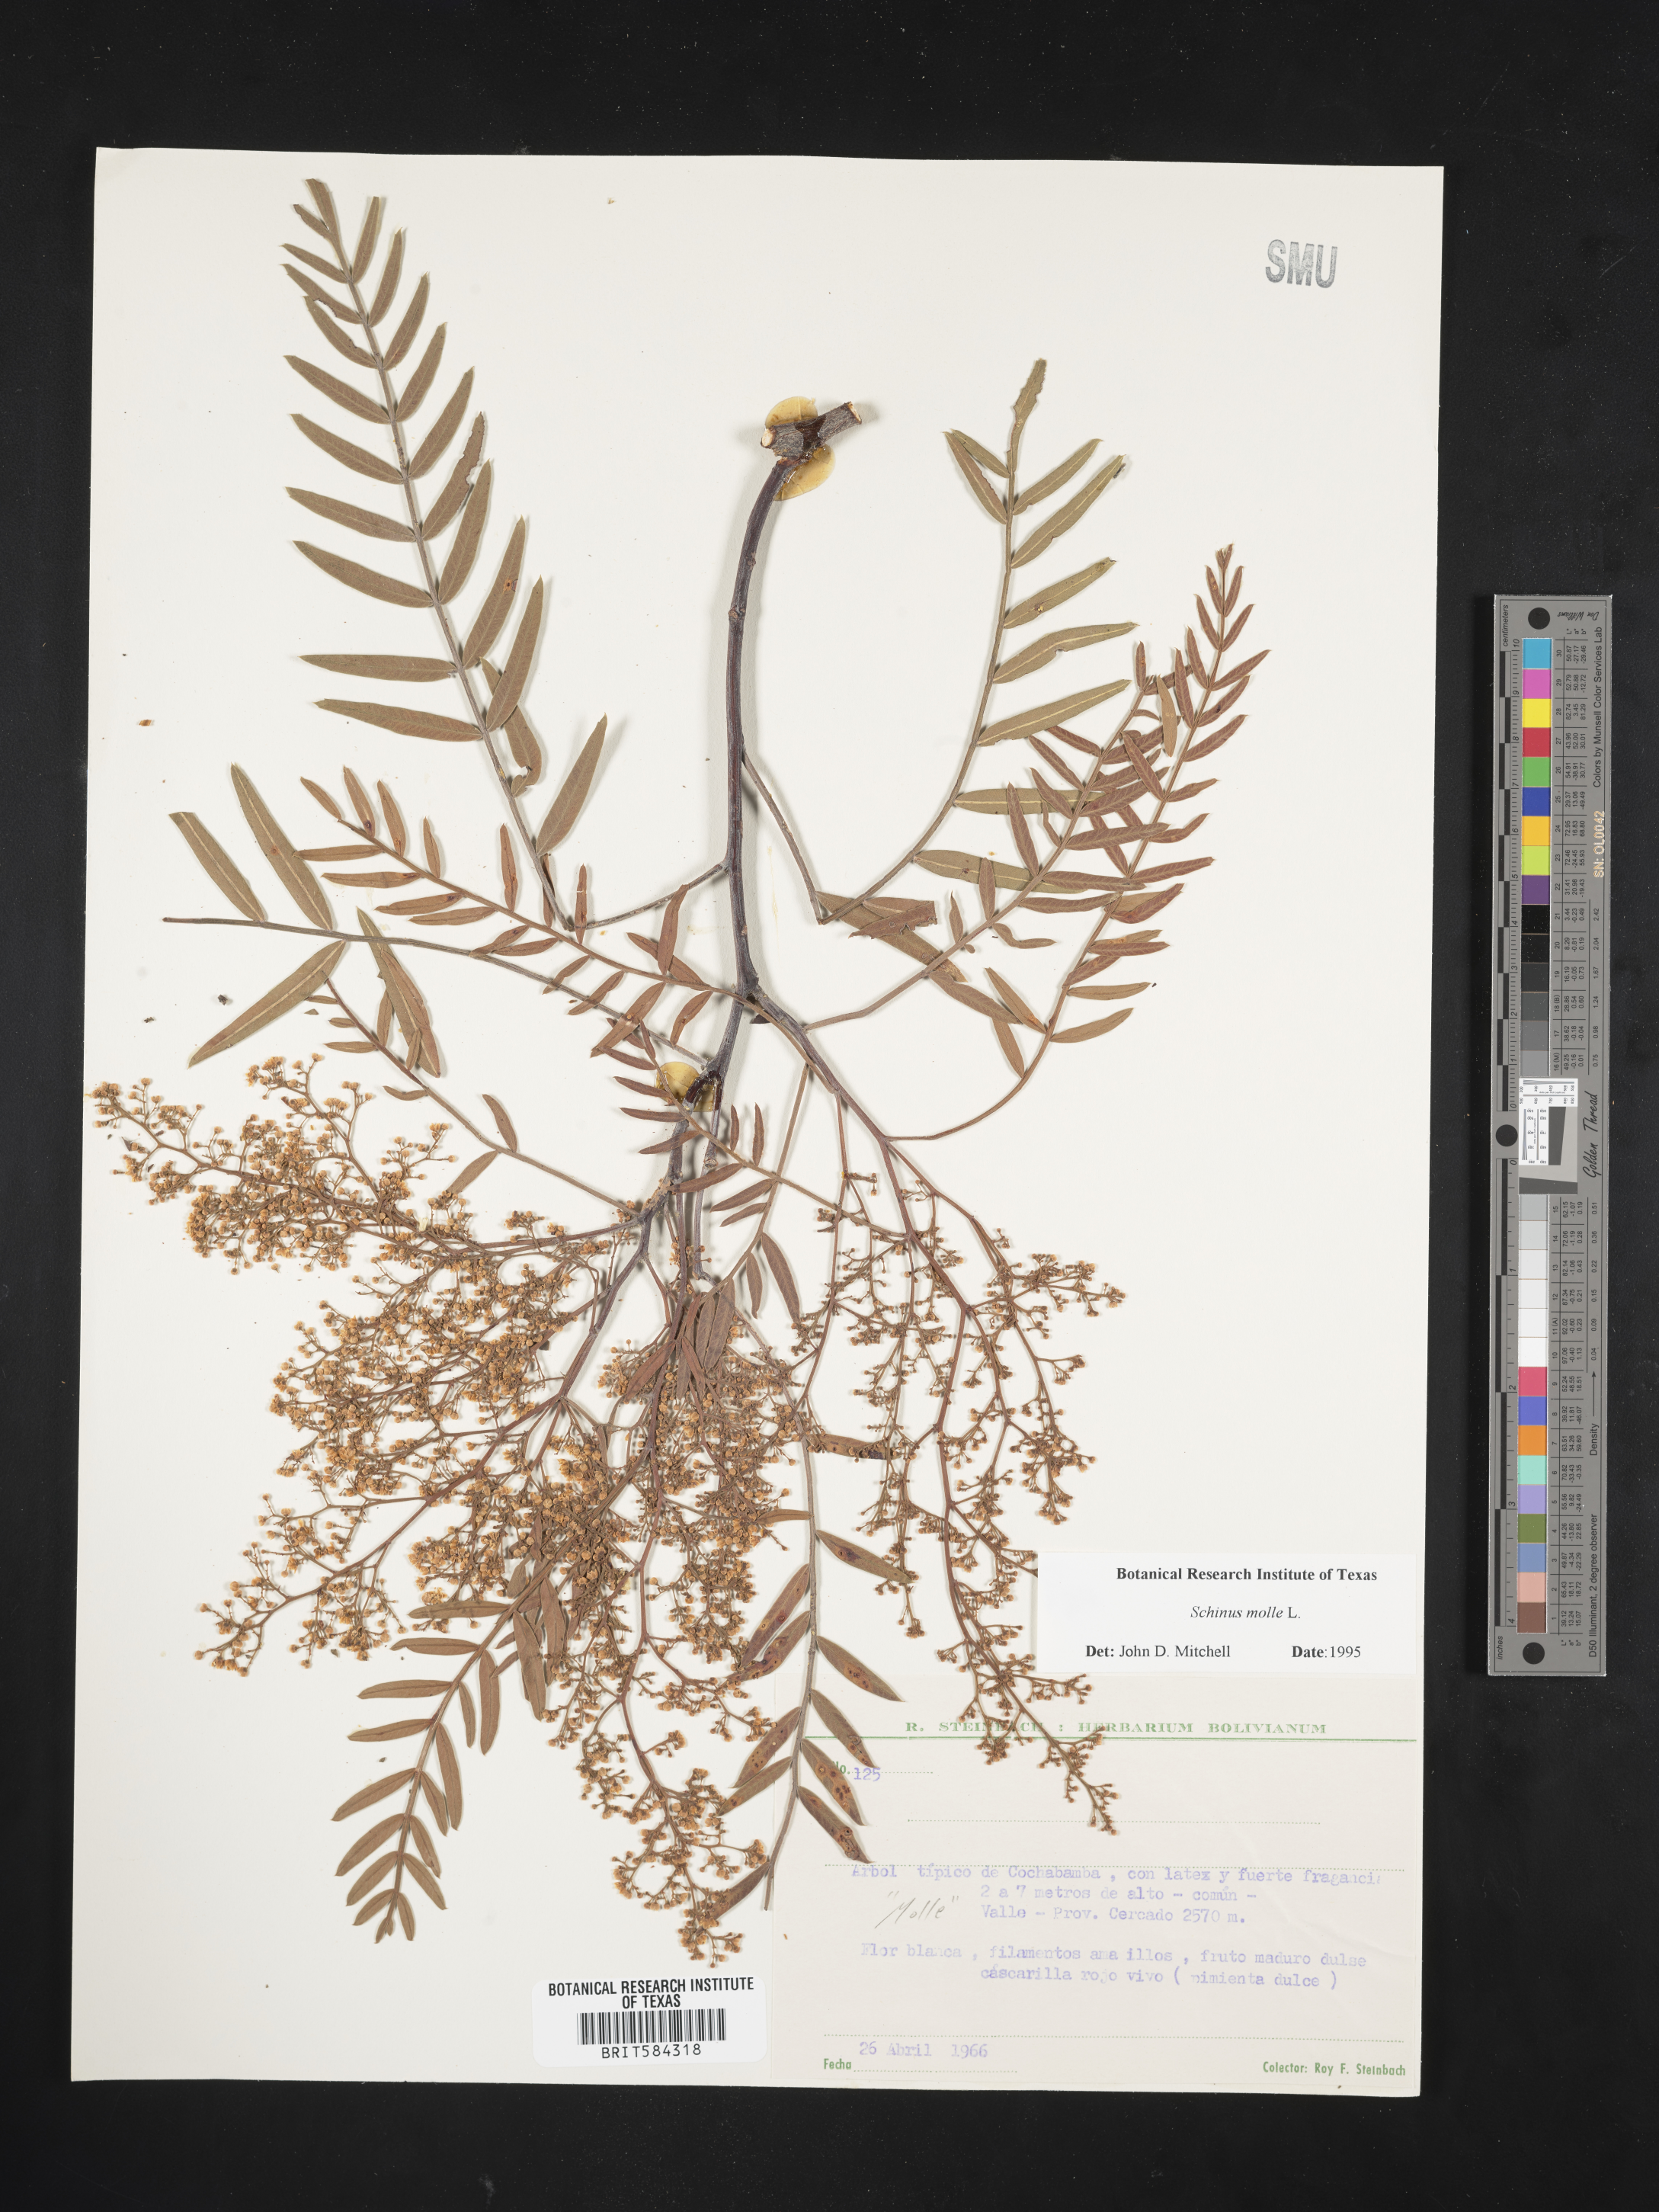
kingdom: Plantae
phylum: Tracheophyta
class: Magnoliopsida
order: Sapindales
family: Anacardiaceae
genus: Schinus
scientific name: Schinus molle
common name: Peruvian peppertree
